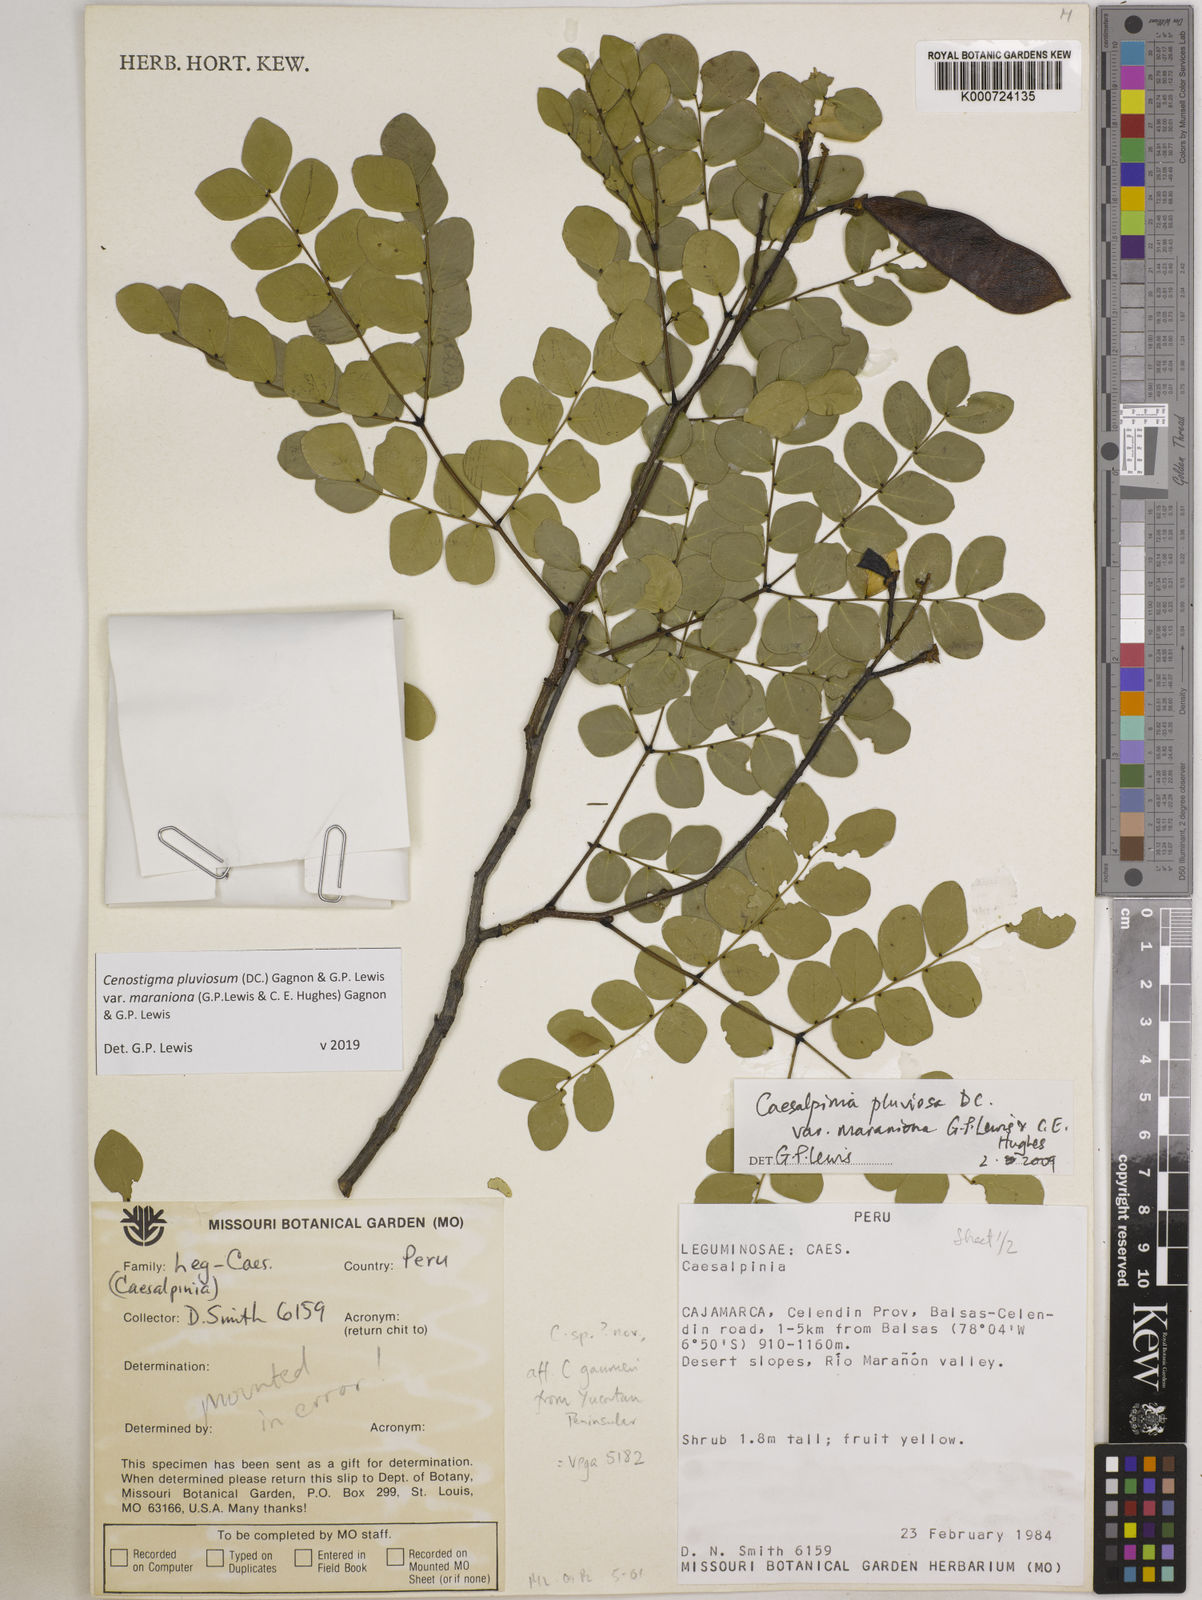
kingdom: Plantae
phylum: Tracheophyta
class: Magnoliopsida
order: Fabales
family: Fabaceae
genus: Cenostigma
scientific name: Cenostigma pluviosum
